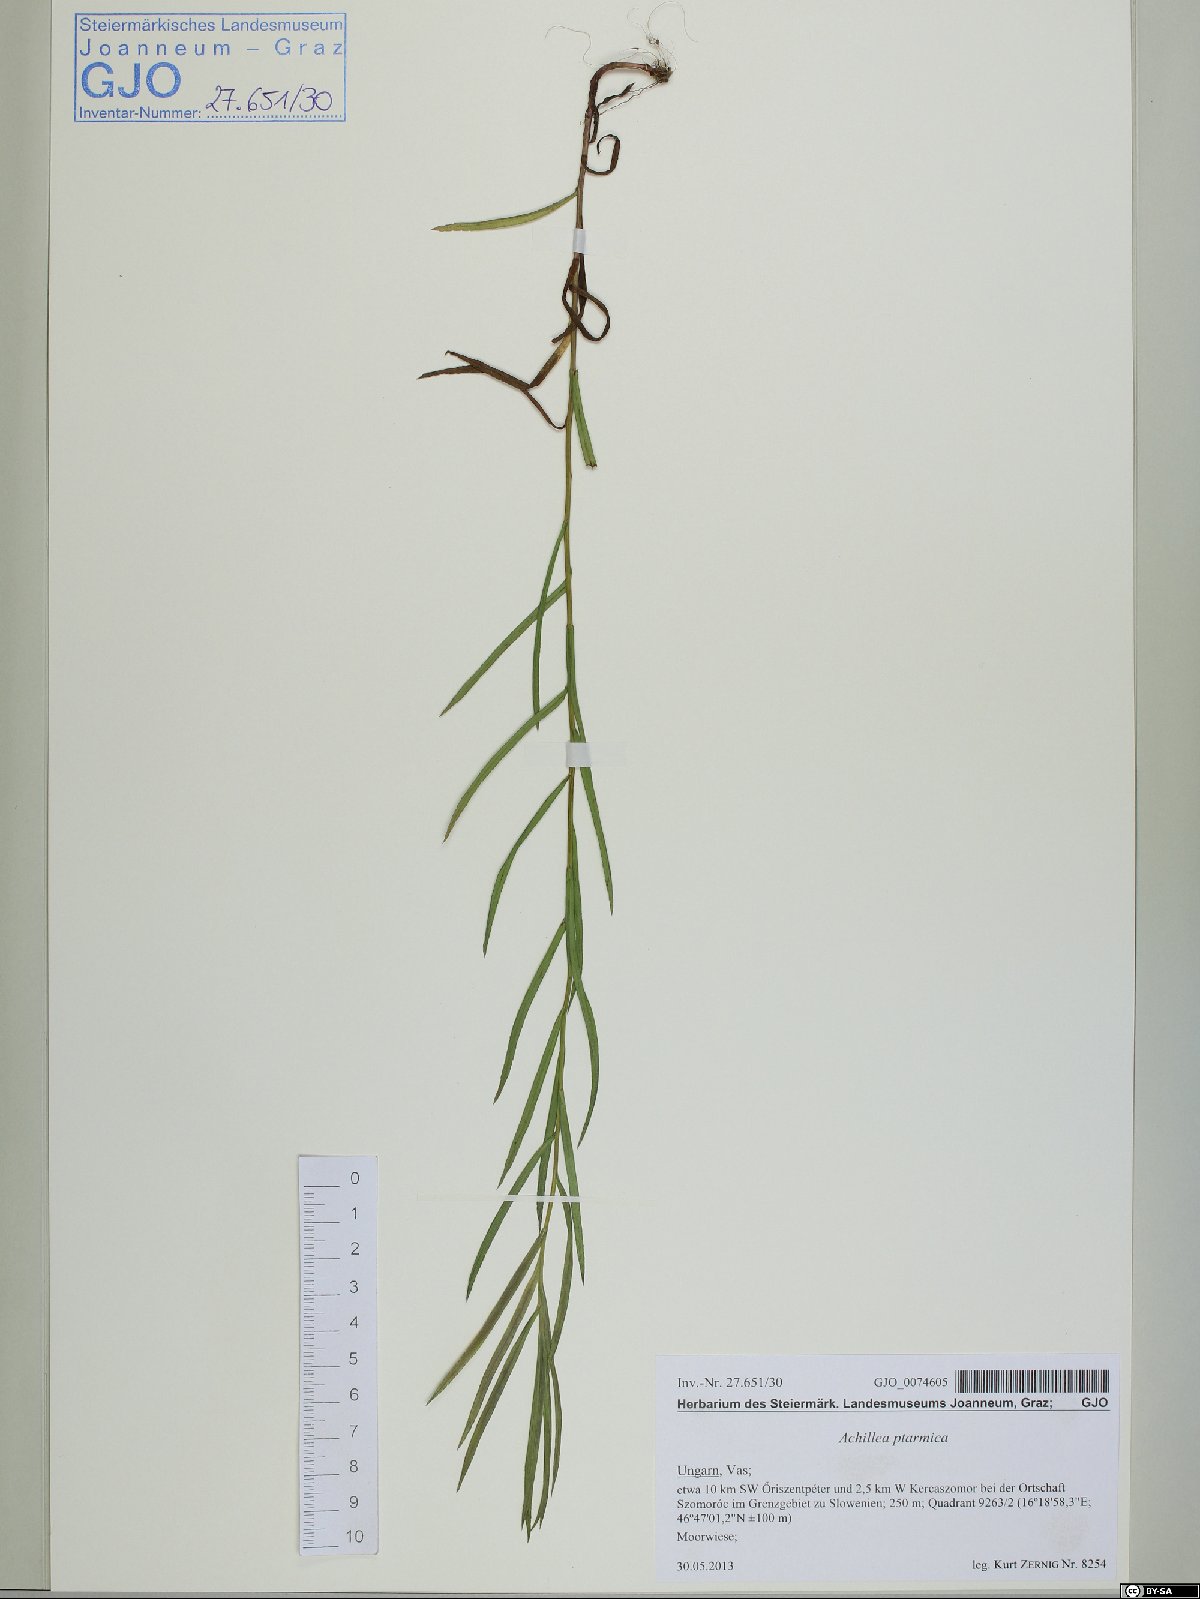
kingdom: Plantae
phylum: Tracheophyta
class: Magnoliopsida
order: Asterales
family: Asteraceae
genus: Achillea
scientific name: Achillea ptarmica
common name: Sneezeweed
